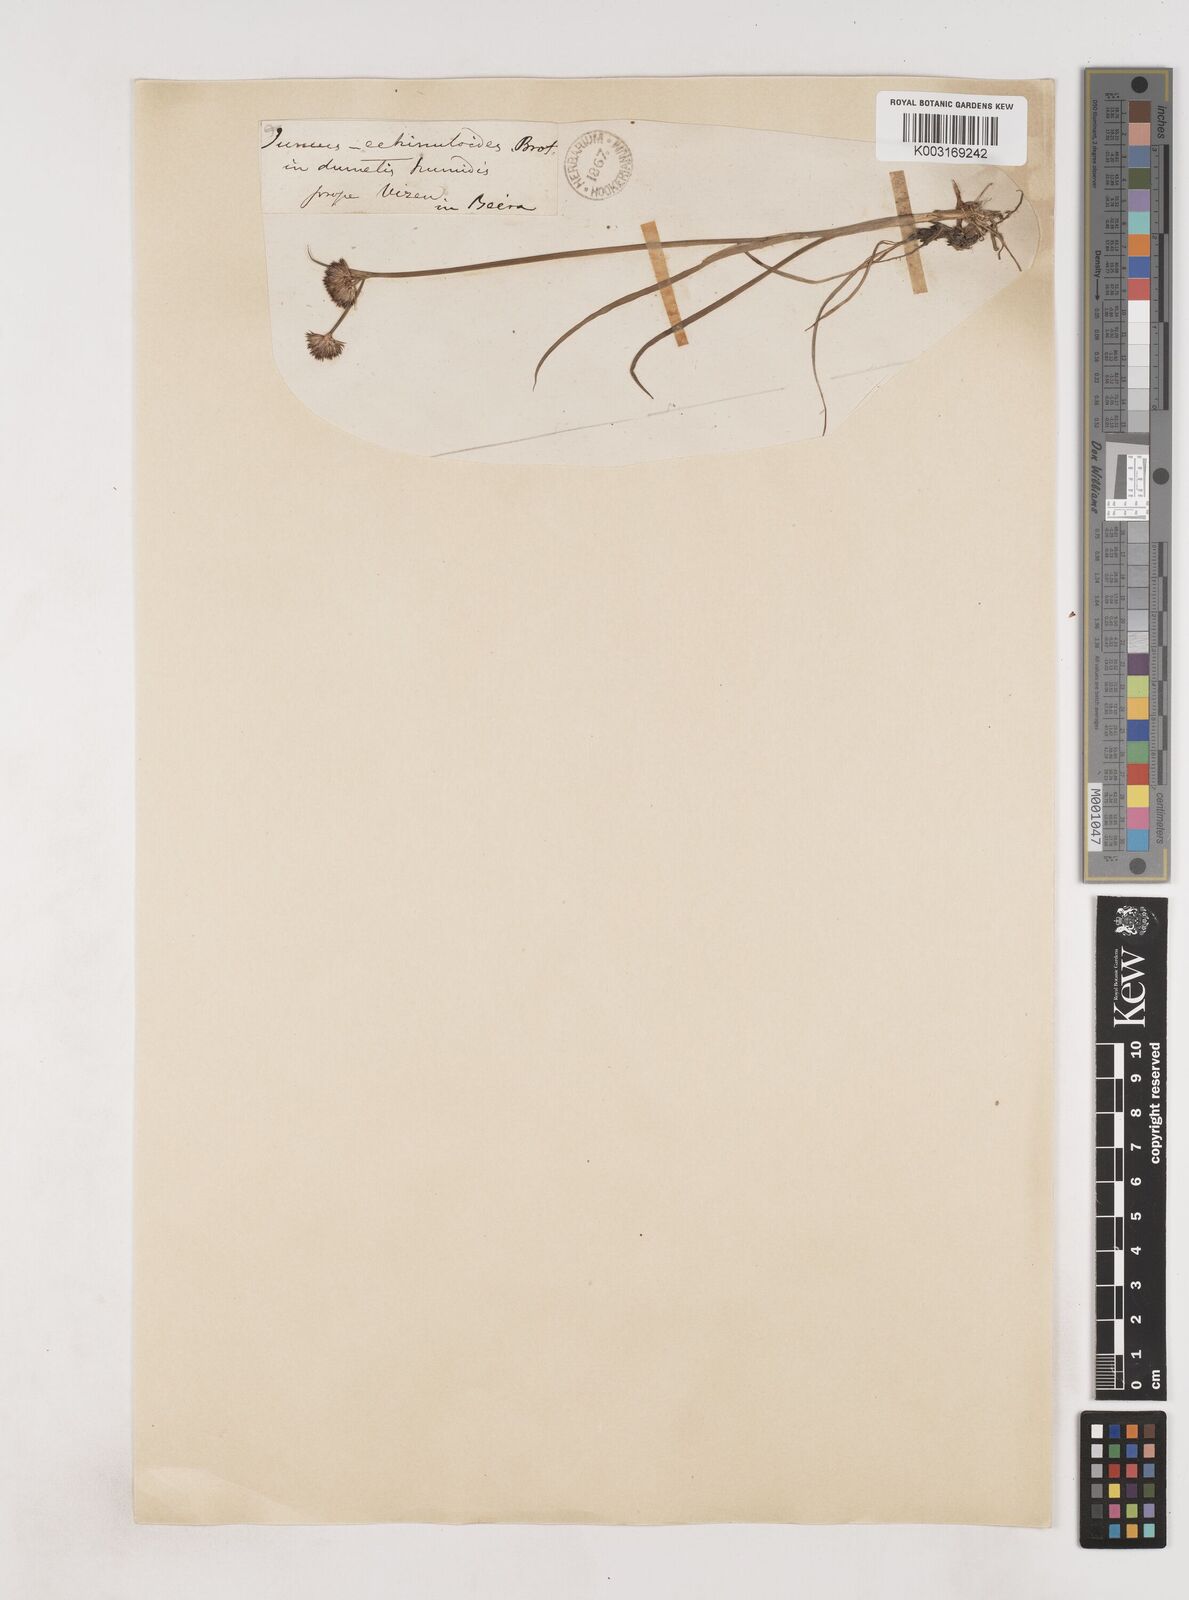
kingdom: Plantae
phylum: Tracheophyta
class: Liliopsida
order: Poales
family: Juncaceae
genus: Juncus
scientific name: Juncus valvatus
